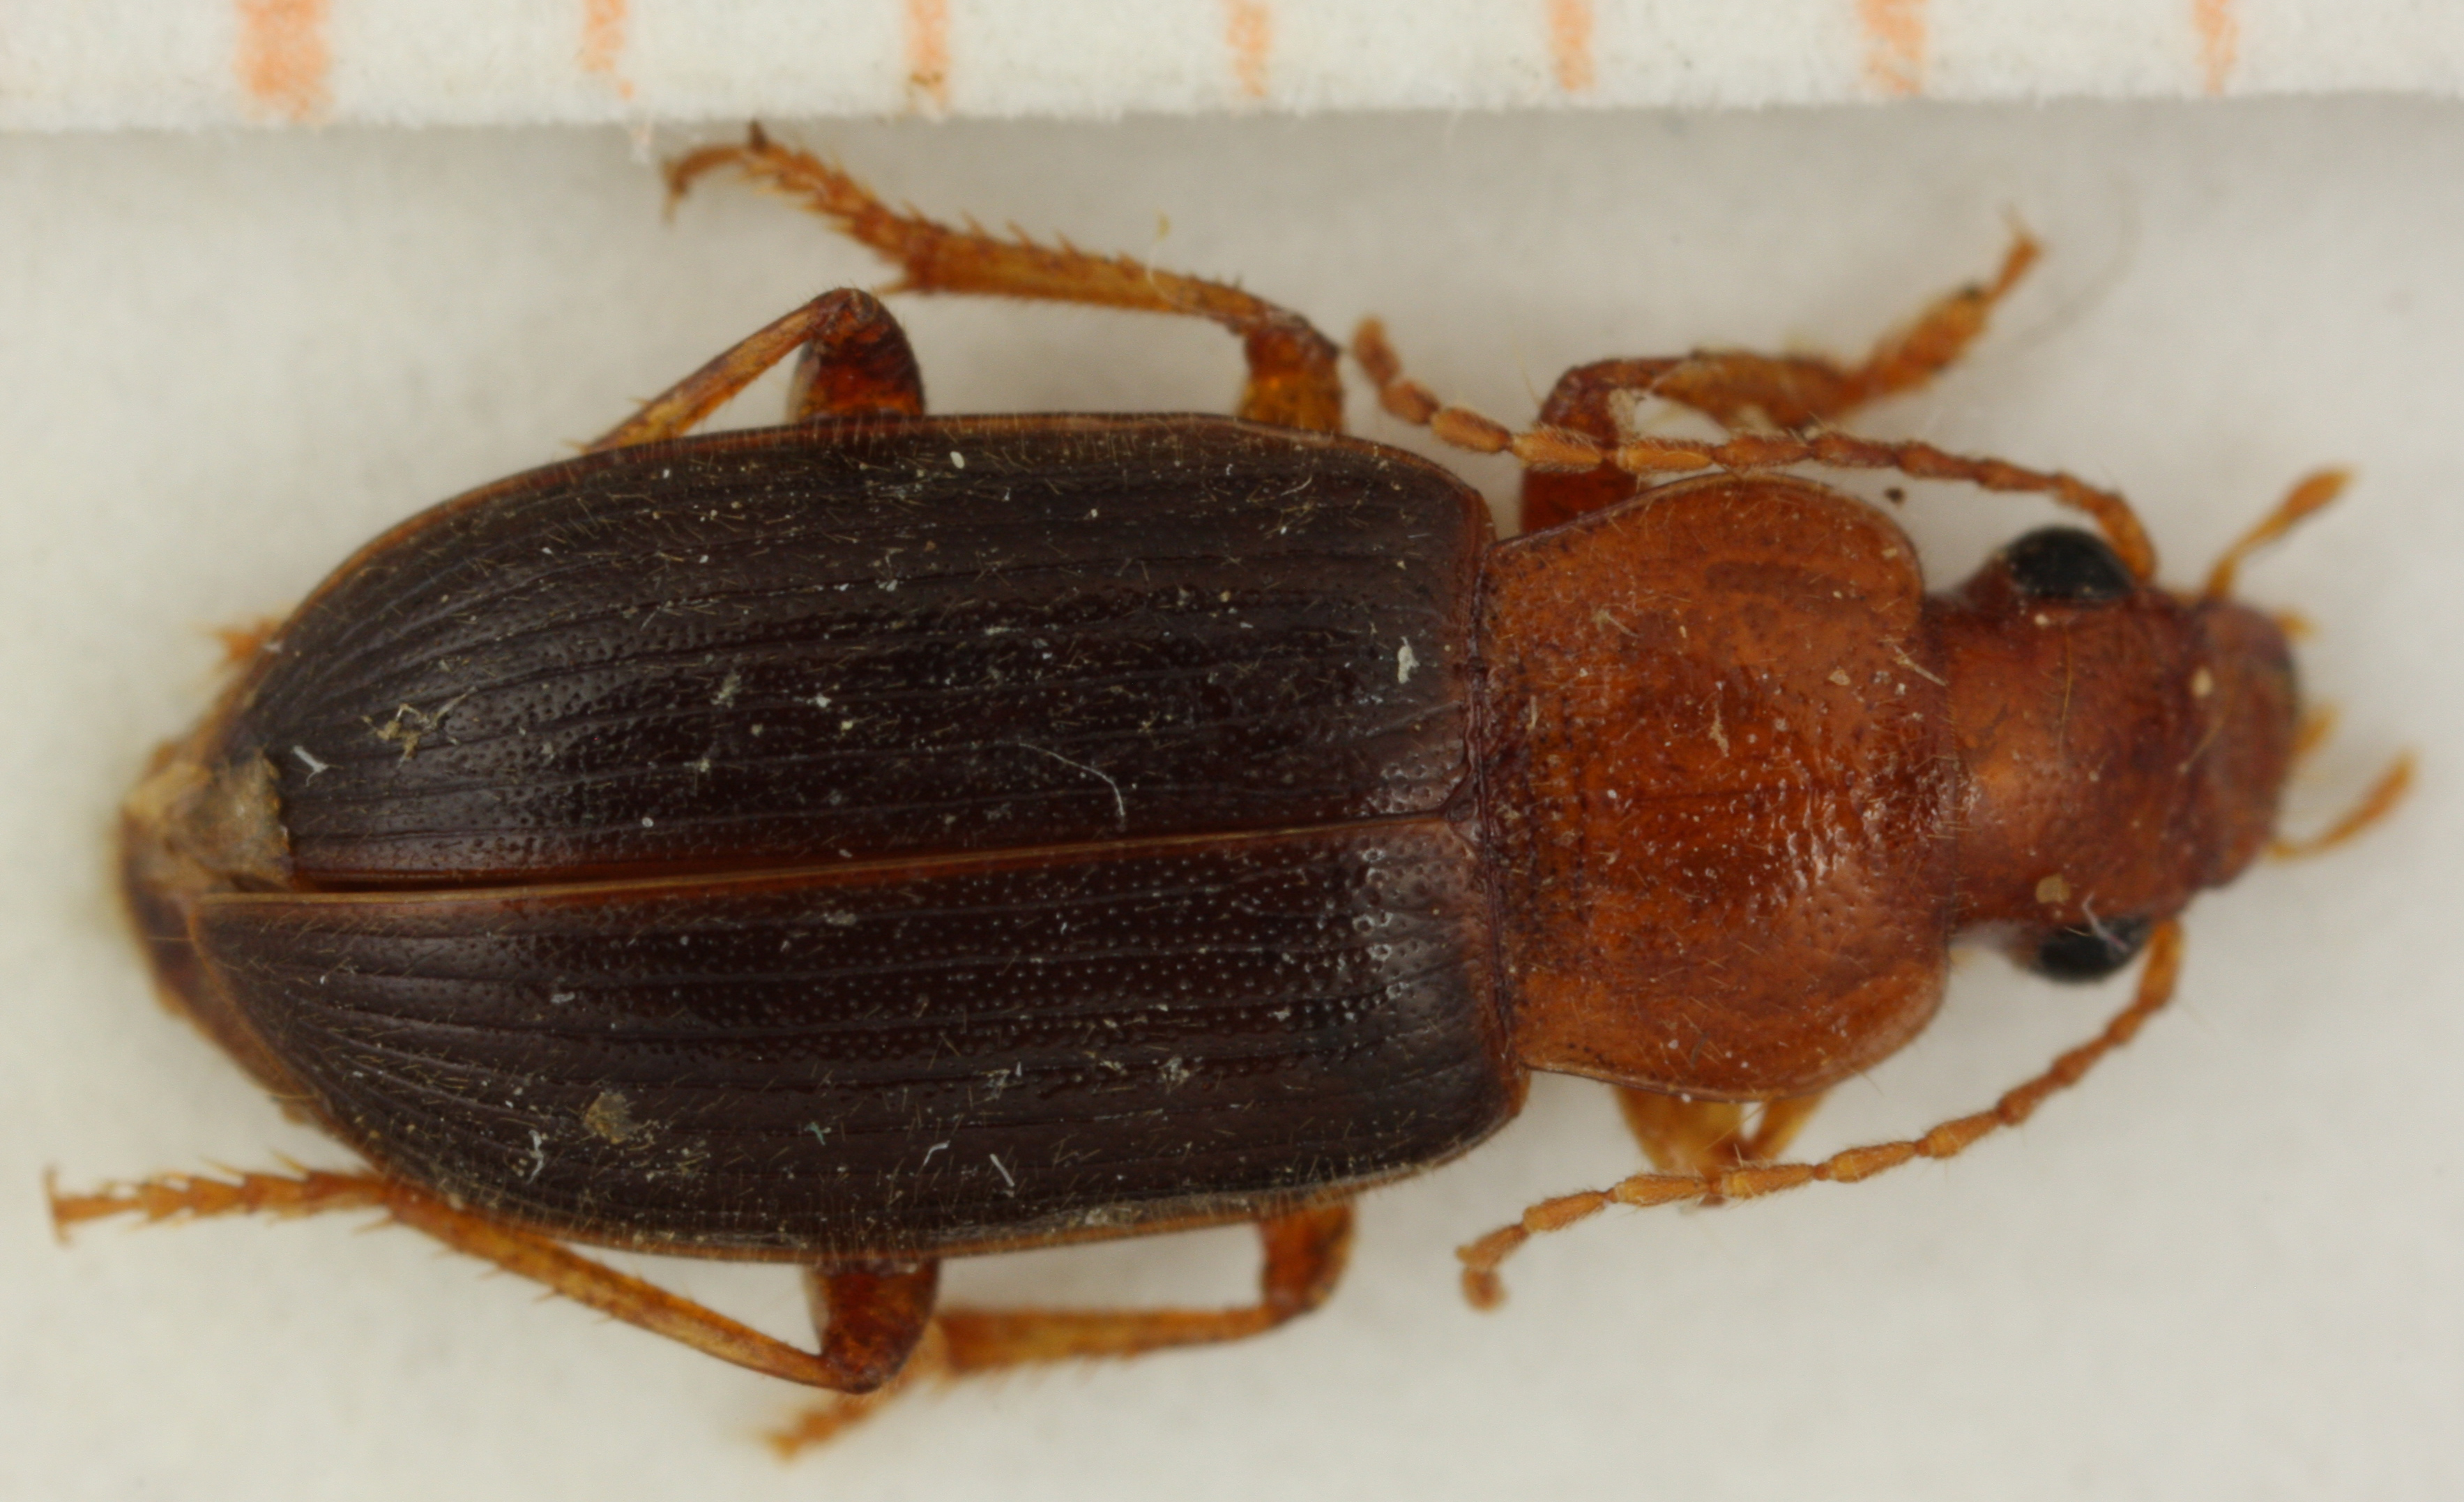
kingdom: Animalia
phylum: Arthropoda
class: Insecta
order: Coleoptera
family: Carabidae
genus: Ophonus
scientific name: Ophonus sahlbergianus
